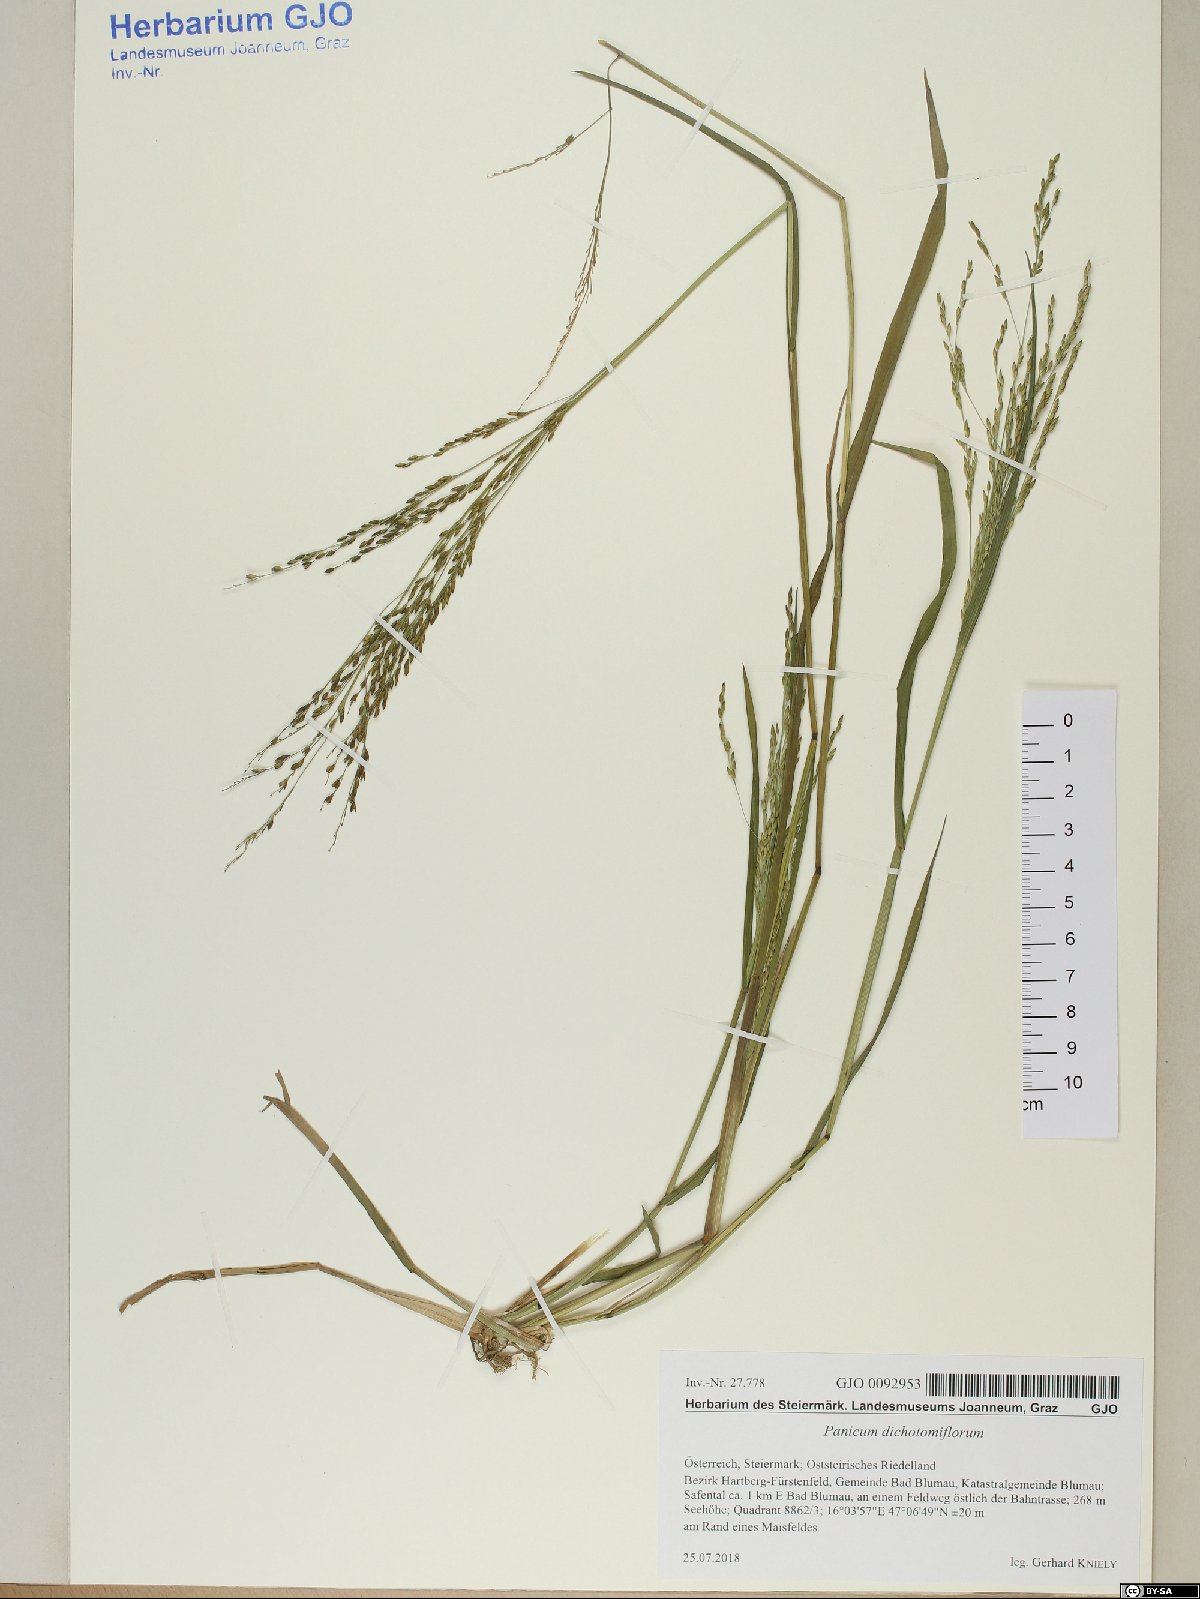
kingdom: Plantae
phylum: Tracheophyta
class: Liliopsida
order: Poales
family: Poaceae
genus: Panicum
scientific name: Panicum dichotomiflorum
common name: Autumn millet
